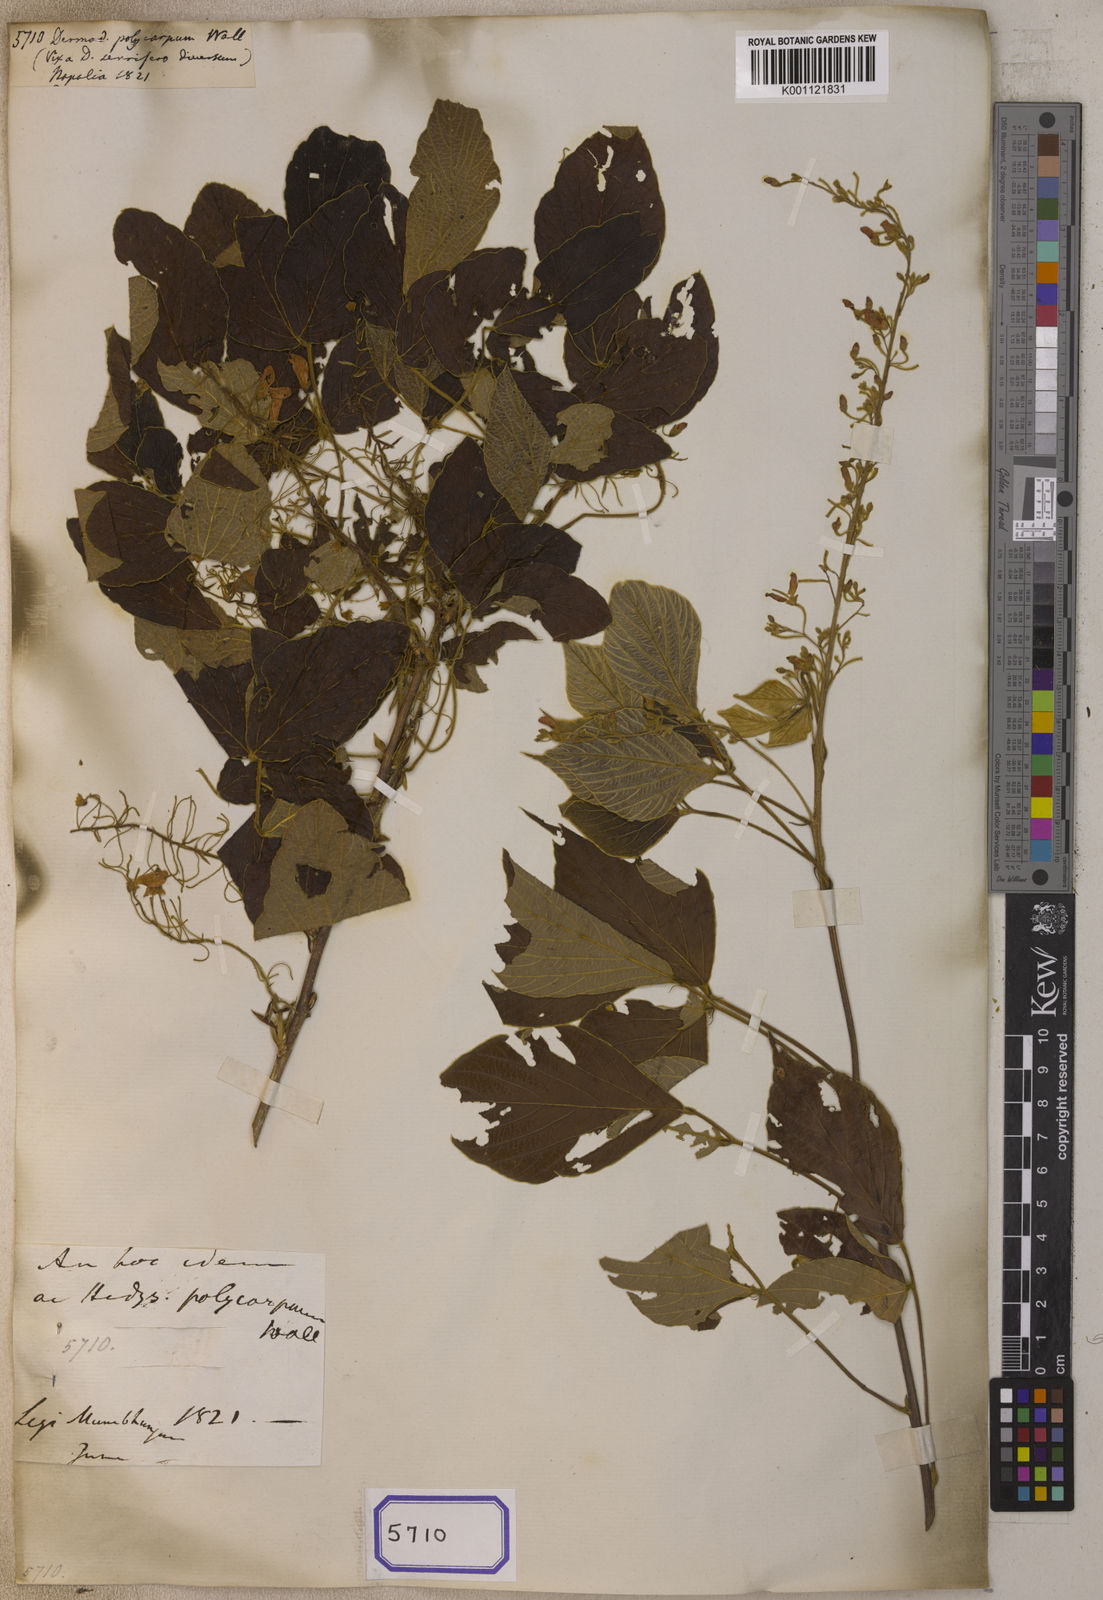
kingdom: Plantae
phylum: Tracheophyta
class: Magnoliopsida
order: Fabales
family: Fabaceae
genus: Desmodium
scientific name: Desmodium
